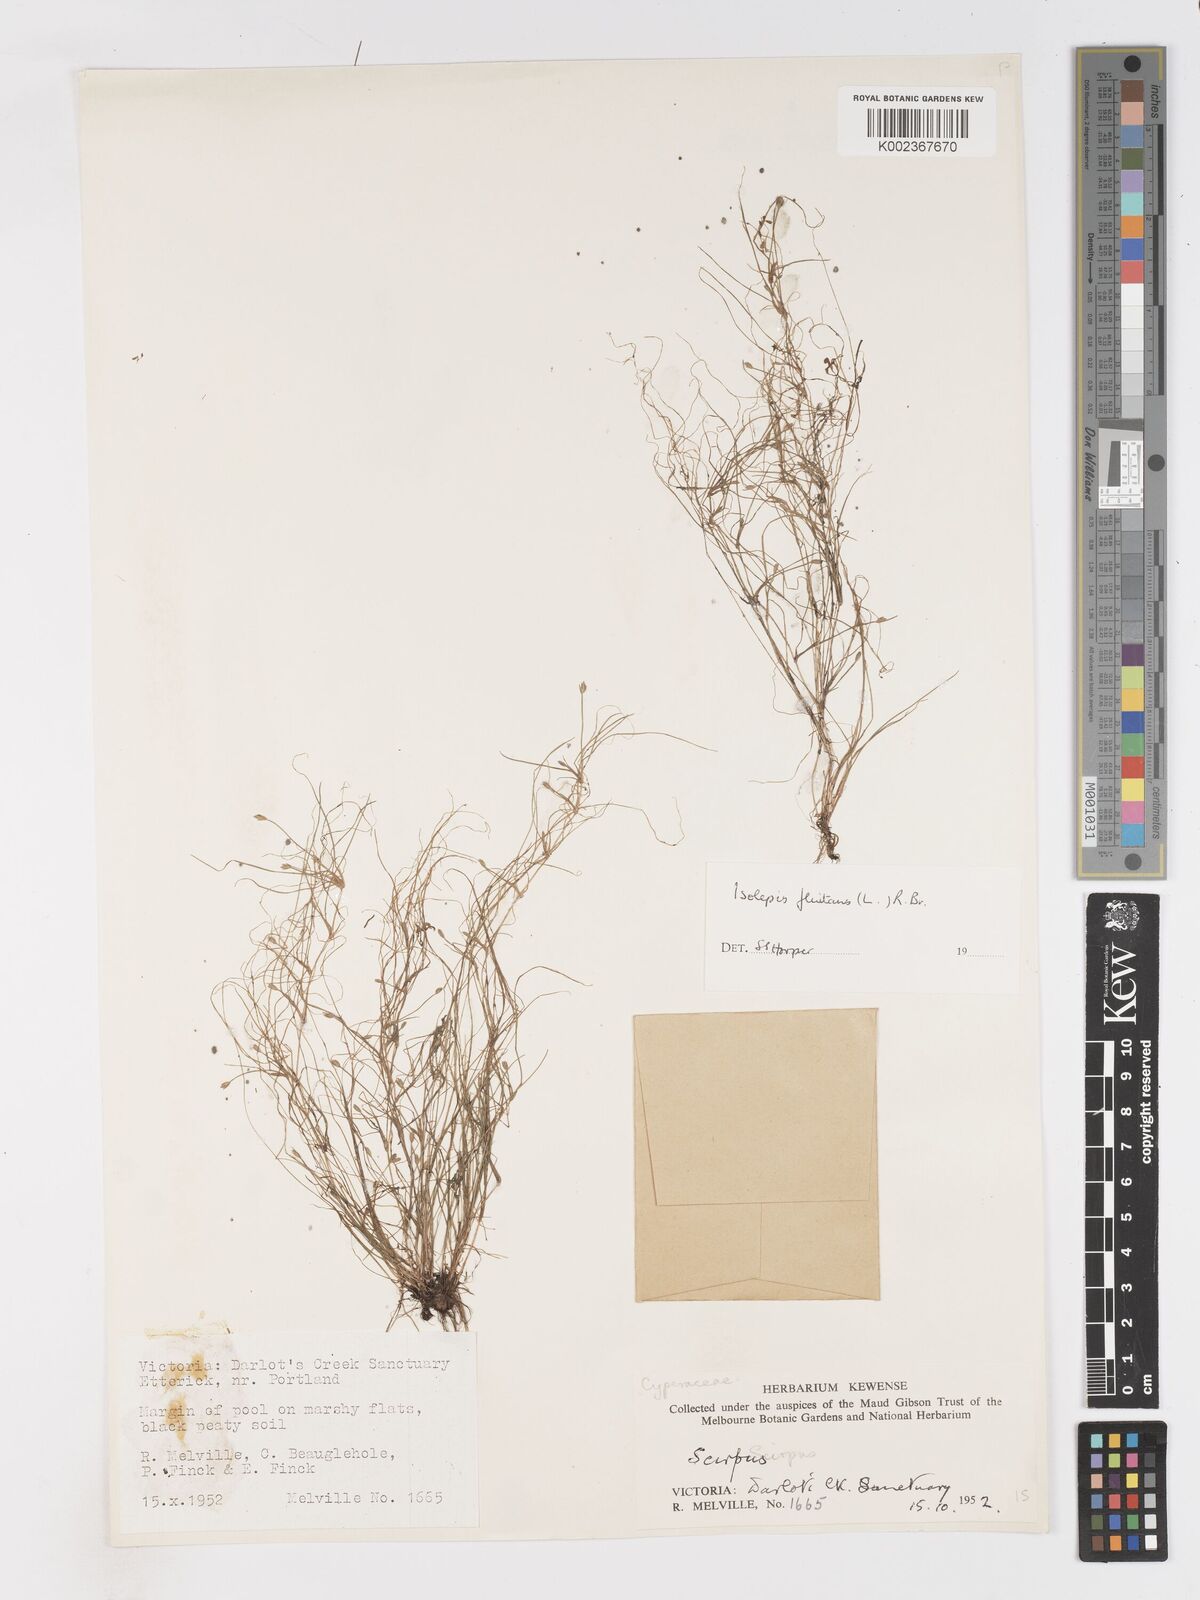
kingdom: Plantae
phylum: Tracheophyta
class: Liliopsida
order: Poales
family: Cyperaceae
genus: Isolepis
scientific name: Isolepis fluitans
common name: Floating club-rush
